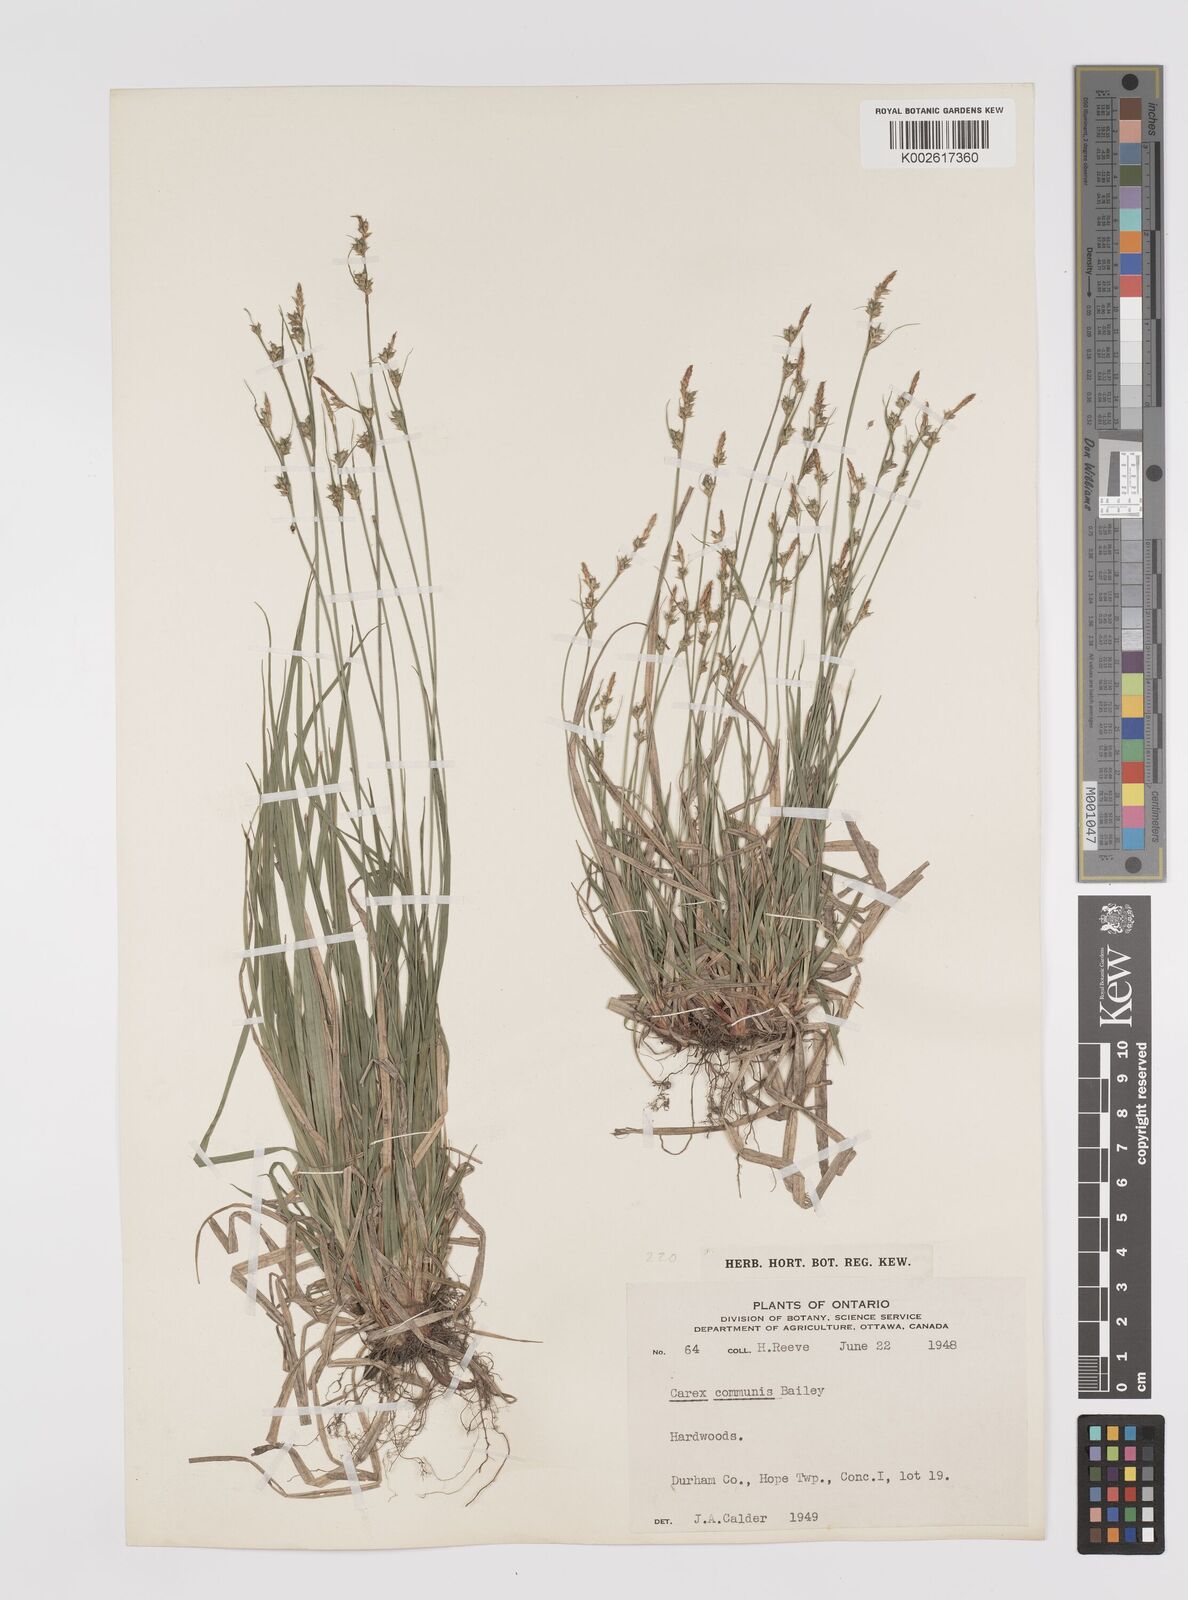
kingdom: Plantae
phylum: Tracheophyta
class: Liliopsida
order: Poales
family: Cyperaceae
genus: Carex
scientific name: Carex communis
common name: Colonial oak sedge
